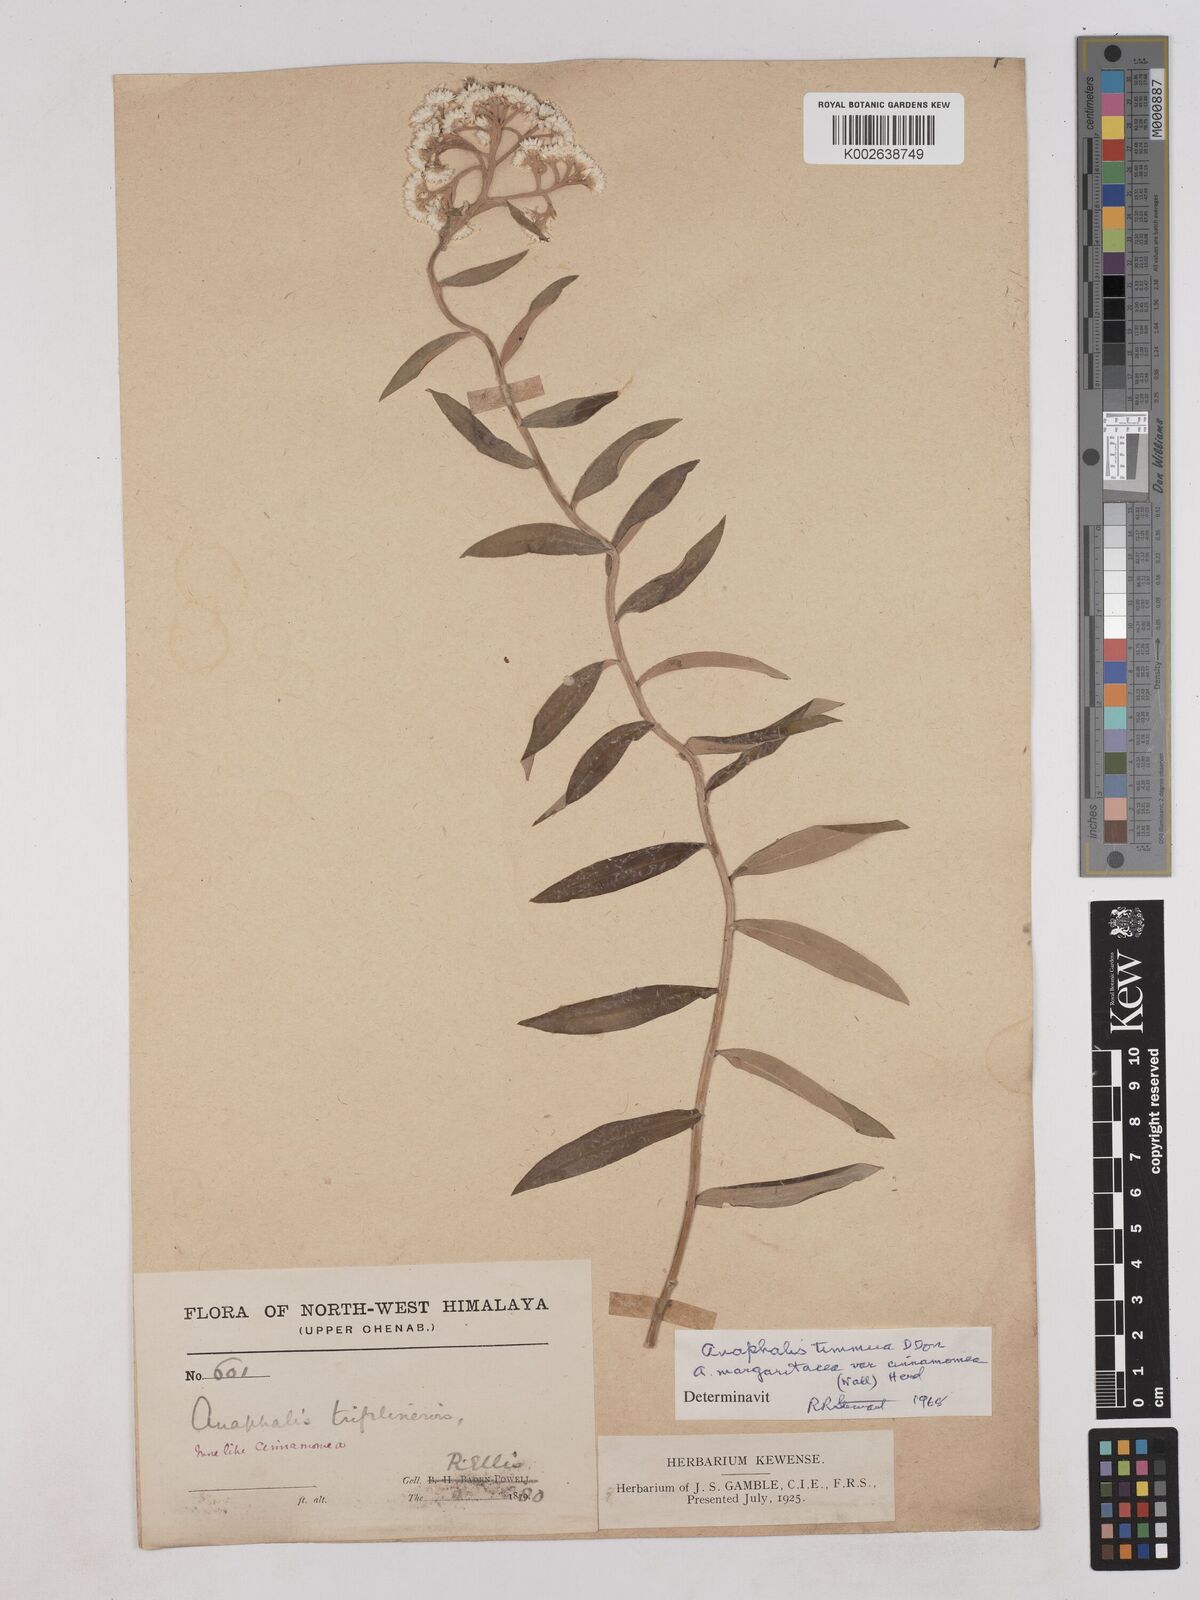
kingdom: Plantae
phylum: Tracheophyta
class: Magnoliopsida
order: Asterales
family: Asteraceae
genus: Anaphalis
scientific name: Anaphalis marcescens
